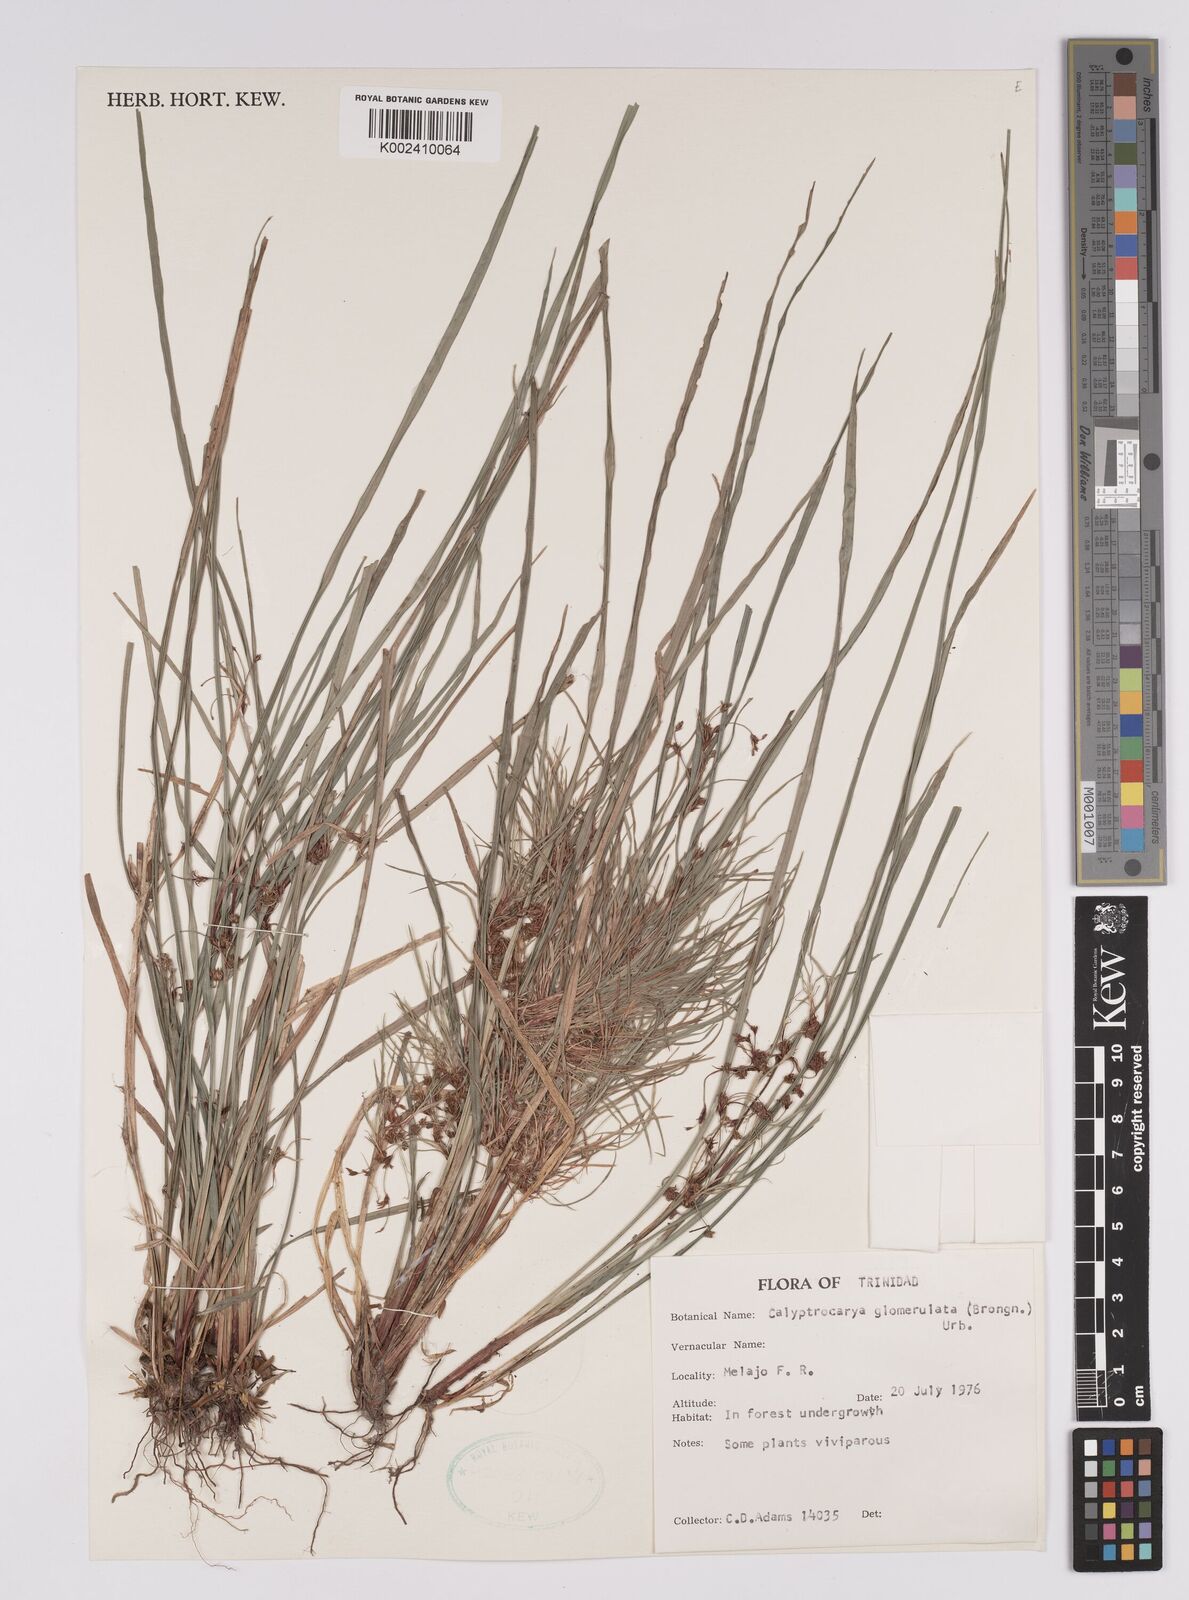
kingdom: Plantae
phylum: Tracheophyta
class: Liliopsida
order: Poales
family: Cyperaceae
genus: Calyptrocarya
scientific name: Calyptrocarya glomerulata
